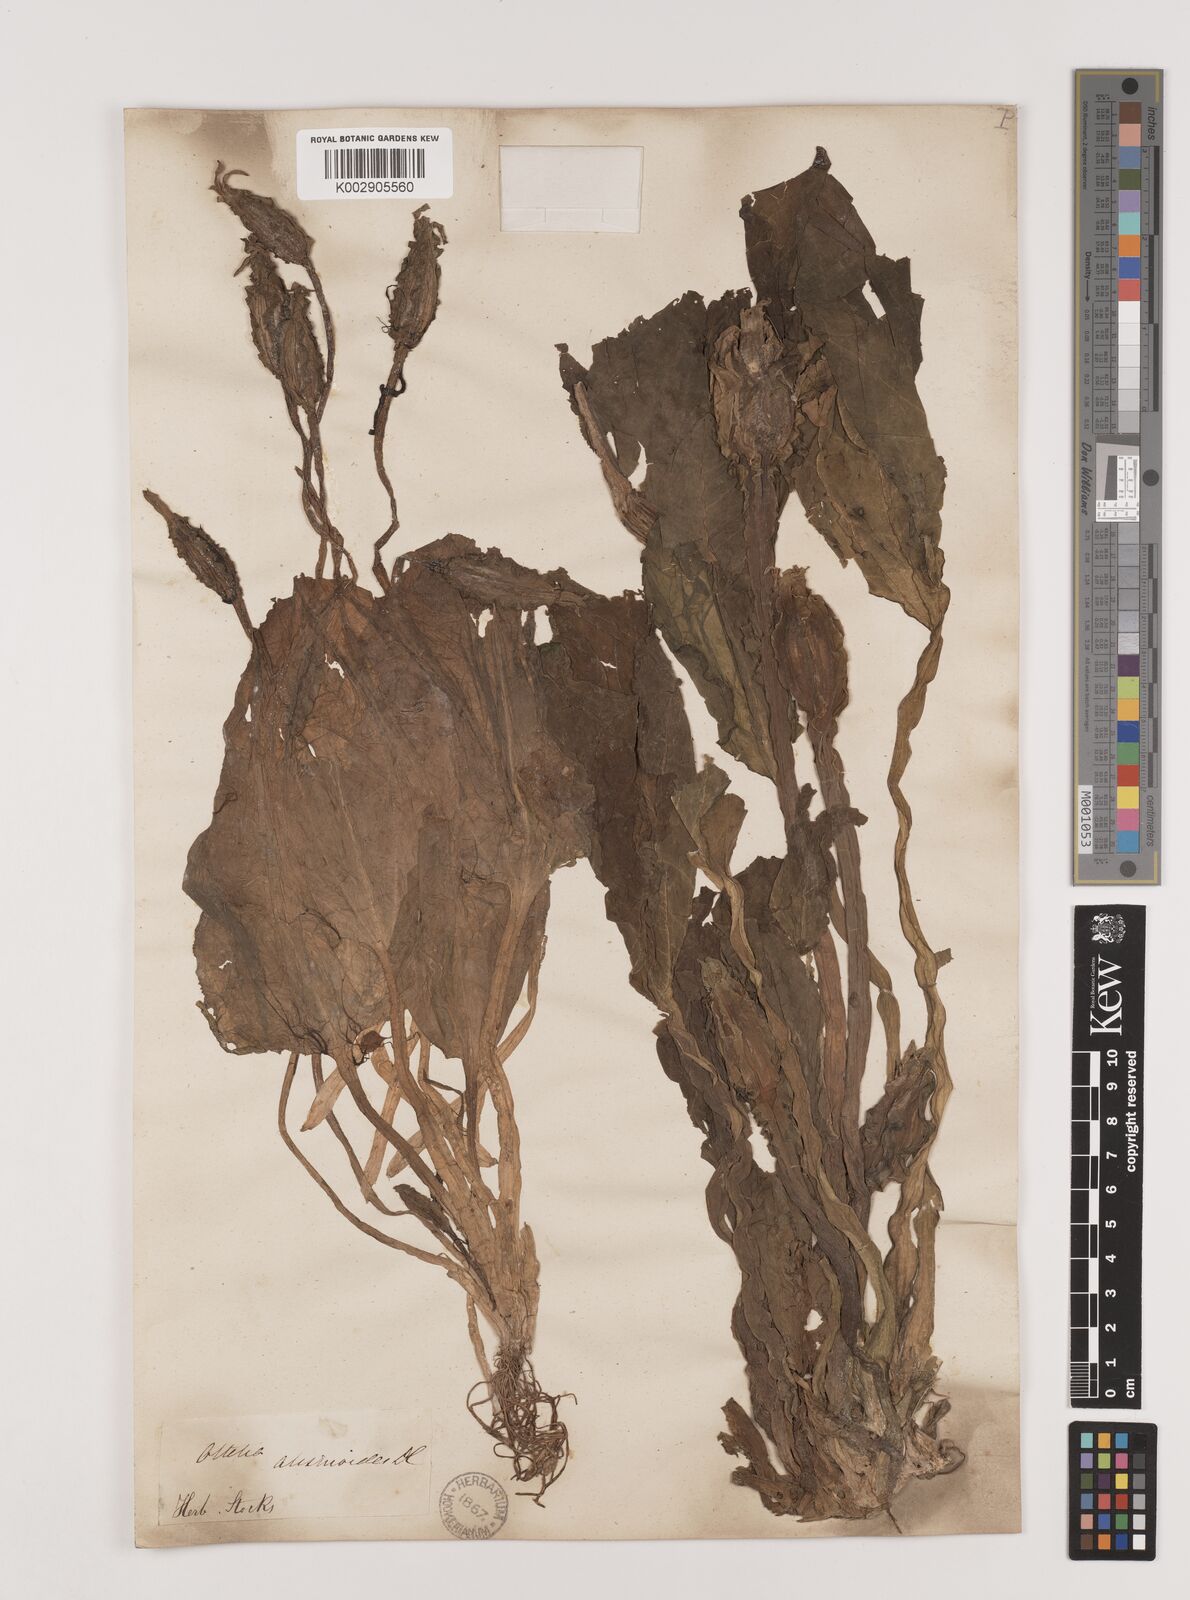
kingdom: Plantae
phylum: Tracheophyta
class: Liliopsida
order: Alismatales
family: Hydrocharitaceae
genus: Ottelia
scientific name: Ottelia alismoides
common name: Duck-lettuce
